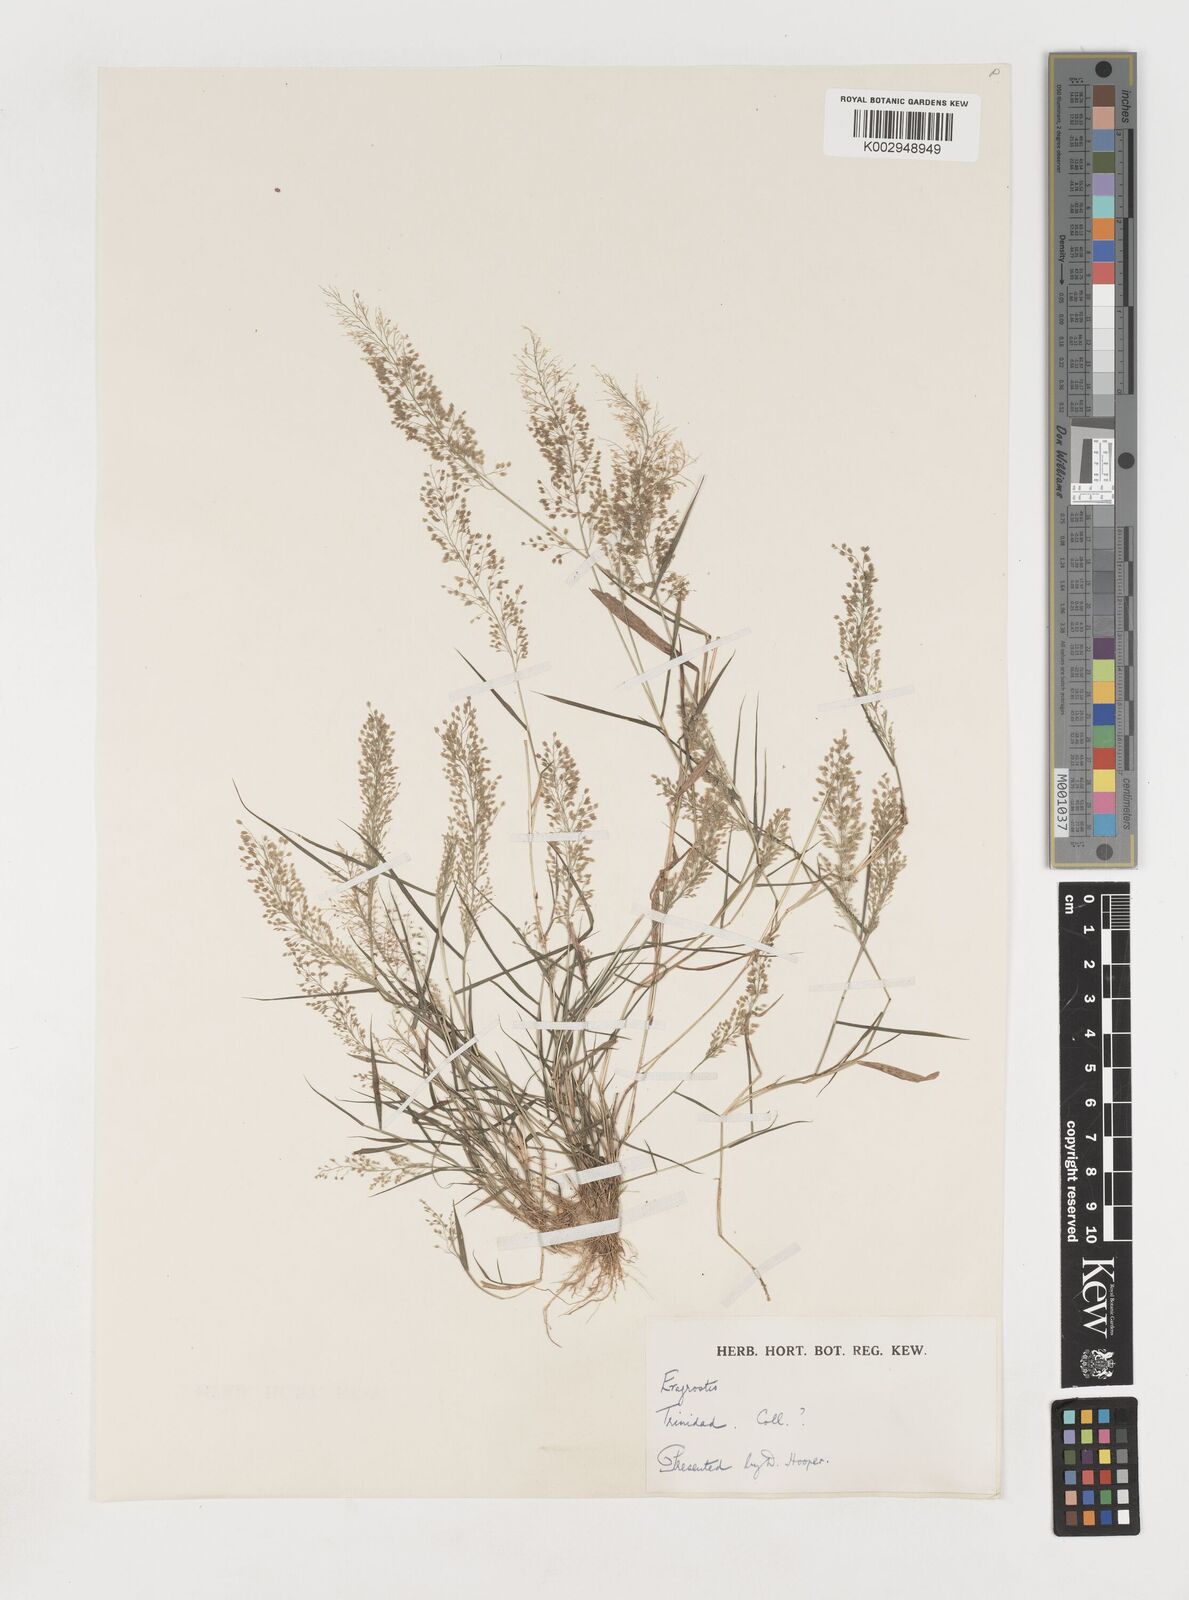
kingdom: Plantae
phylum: Tracheophyta
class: Liliopsida
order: Poales
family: Poaceae
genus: Eragrostis
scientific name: Eragrostis tenella
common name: Japanese lovegrass
